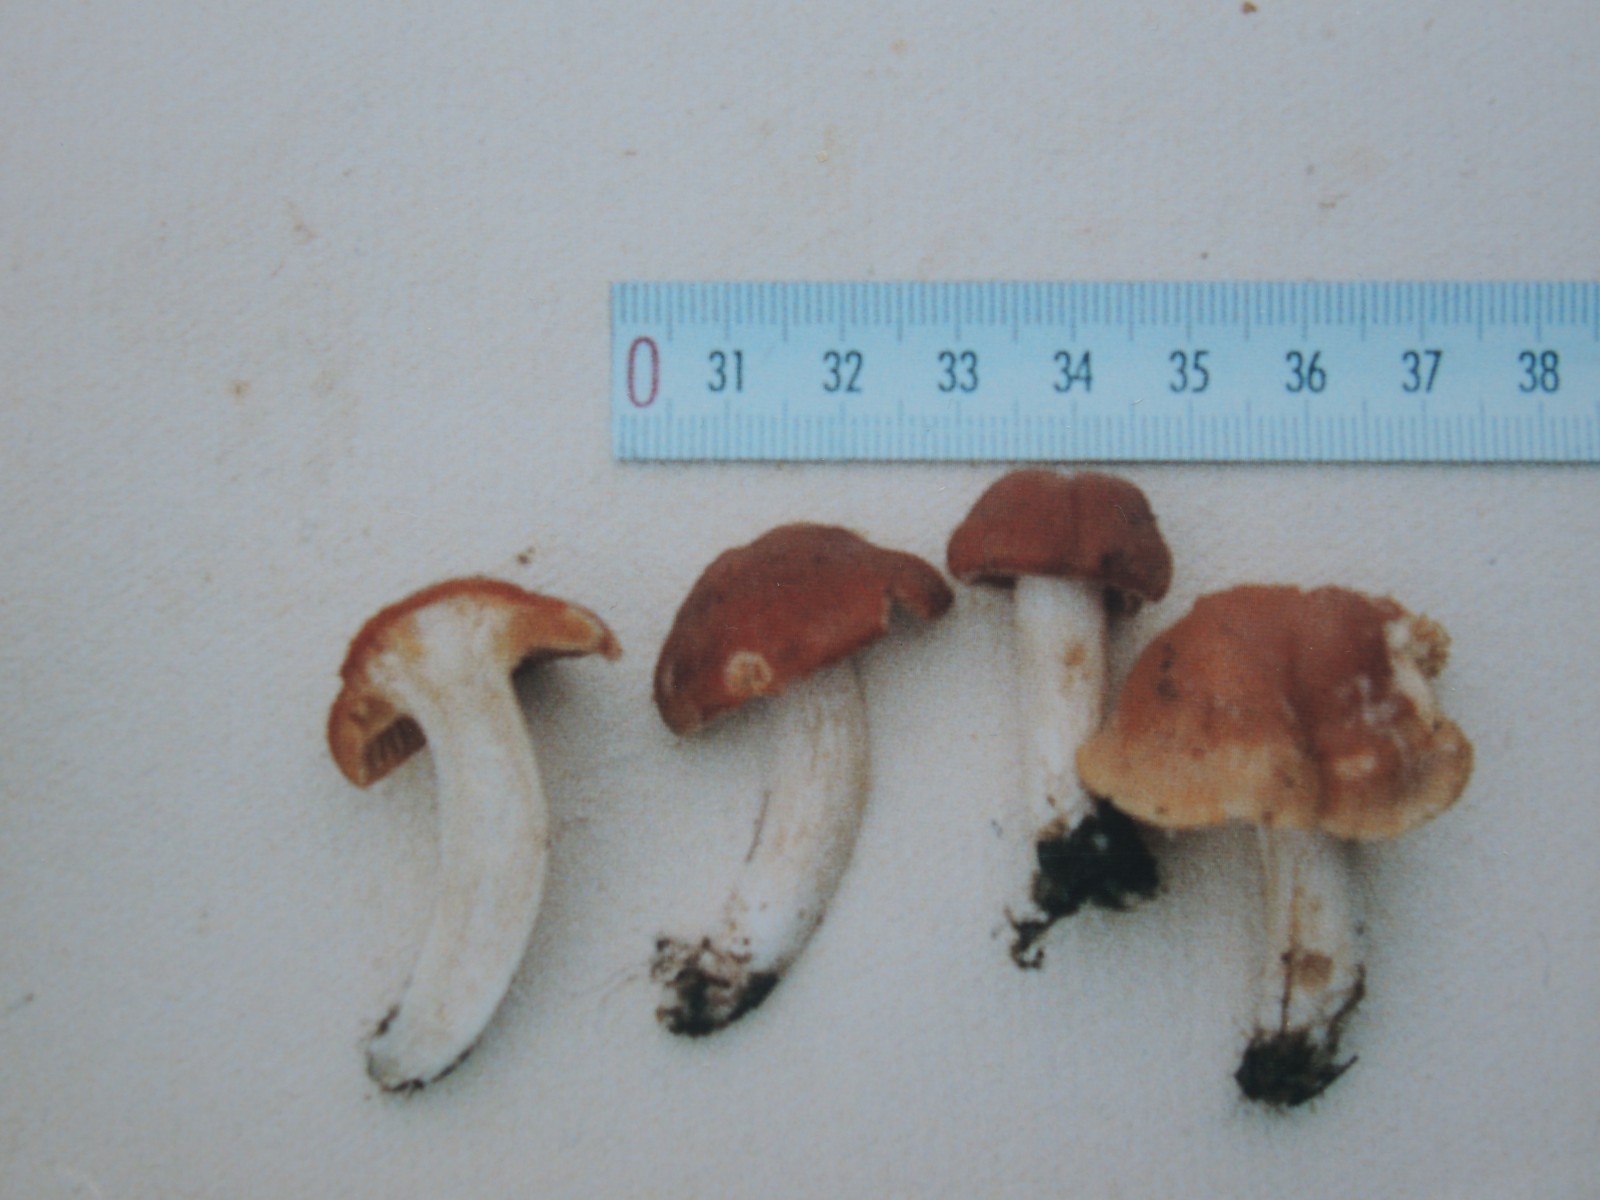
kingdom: Fungi
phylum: Basidiomycota
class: Agaricomycetes
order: Agaricales
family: Hygrophoraceae
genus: Cuphophyllus
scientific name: Cuphophyllus pratensis
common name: eng-vokshat
